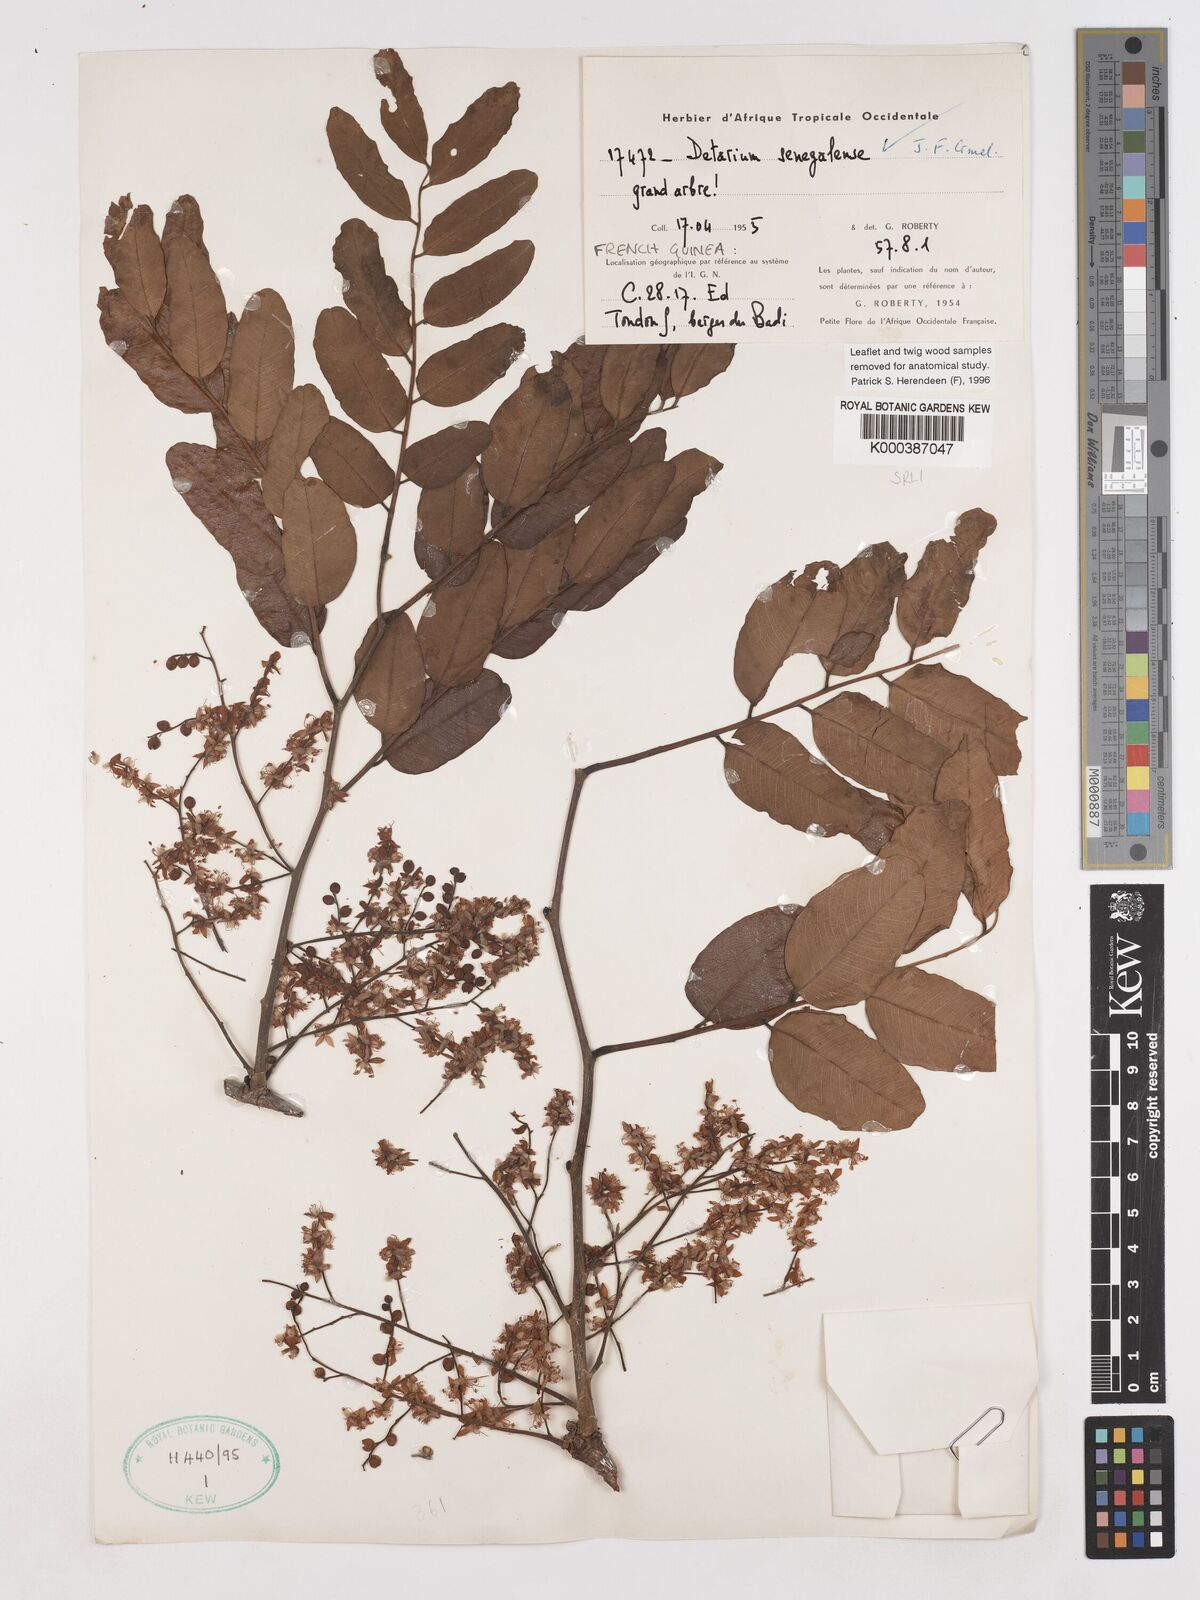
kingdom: Plantae
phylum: Tracheophyta
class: Magnoliopsida
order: Fabales
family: Fabaceae
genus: Detarium
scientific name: Detarium microcarpum
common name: Sweet dattock
